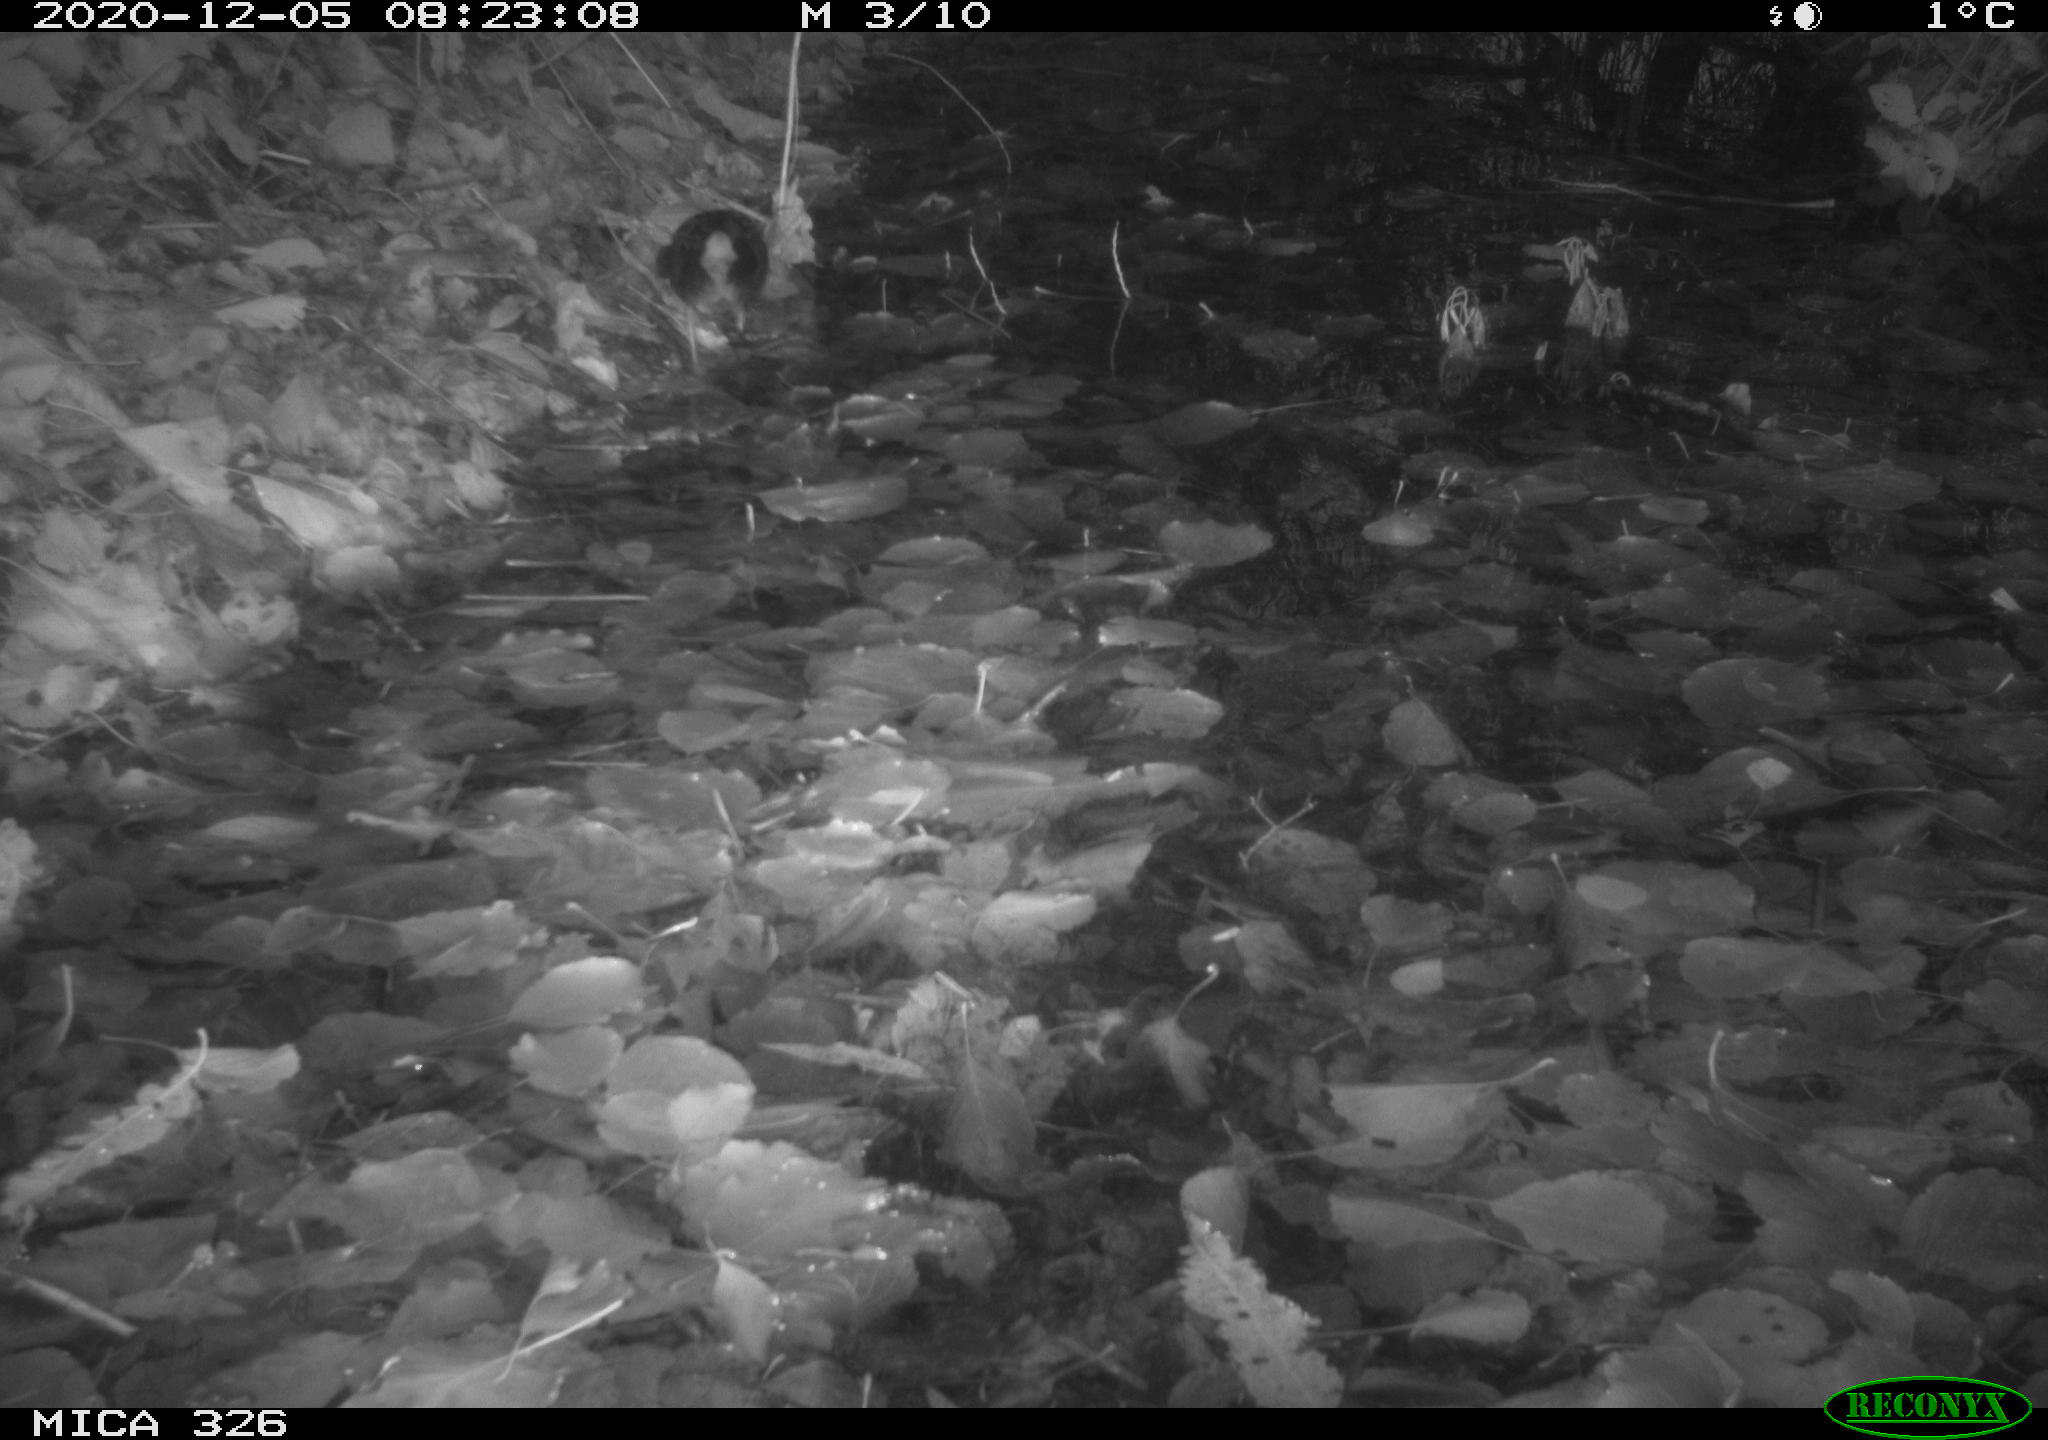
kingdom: Animalia
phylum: Chordata
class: Aves
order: Gruiformes
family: Rallidae
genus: Rallus
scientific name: Rallus aquaticus
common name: Water rail
